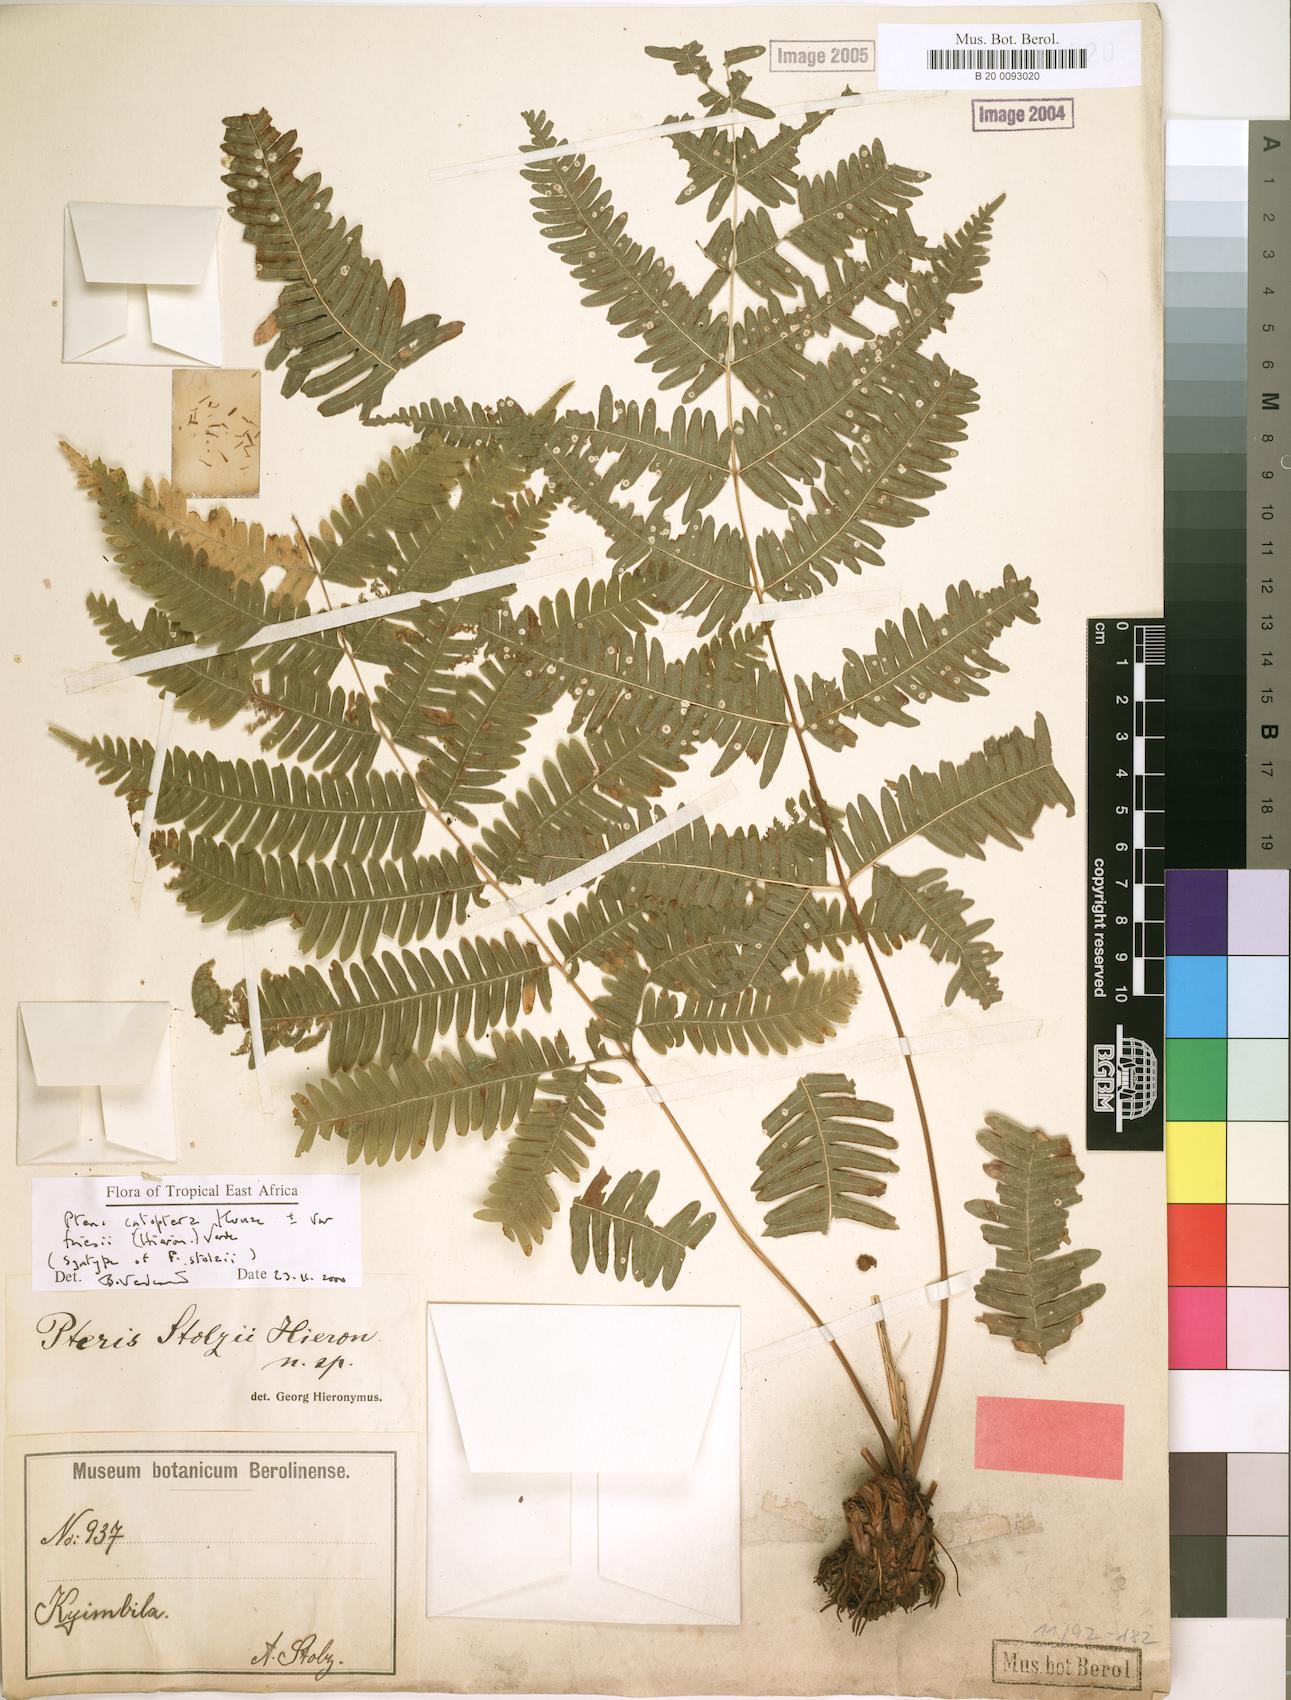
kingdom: Plantae
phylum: Tracheophyta
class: Polypodiopsida
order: Polypodiales
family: Pteridaceae
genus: Pteris
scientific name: Pteris friesii
